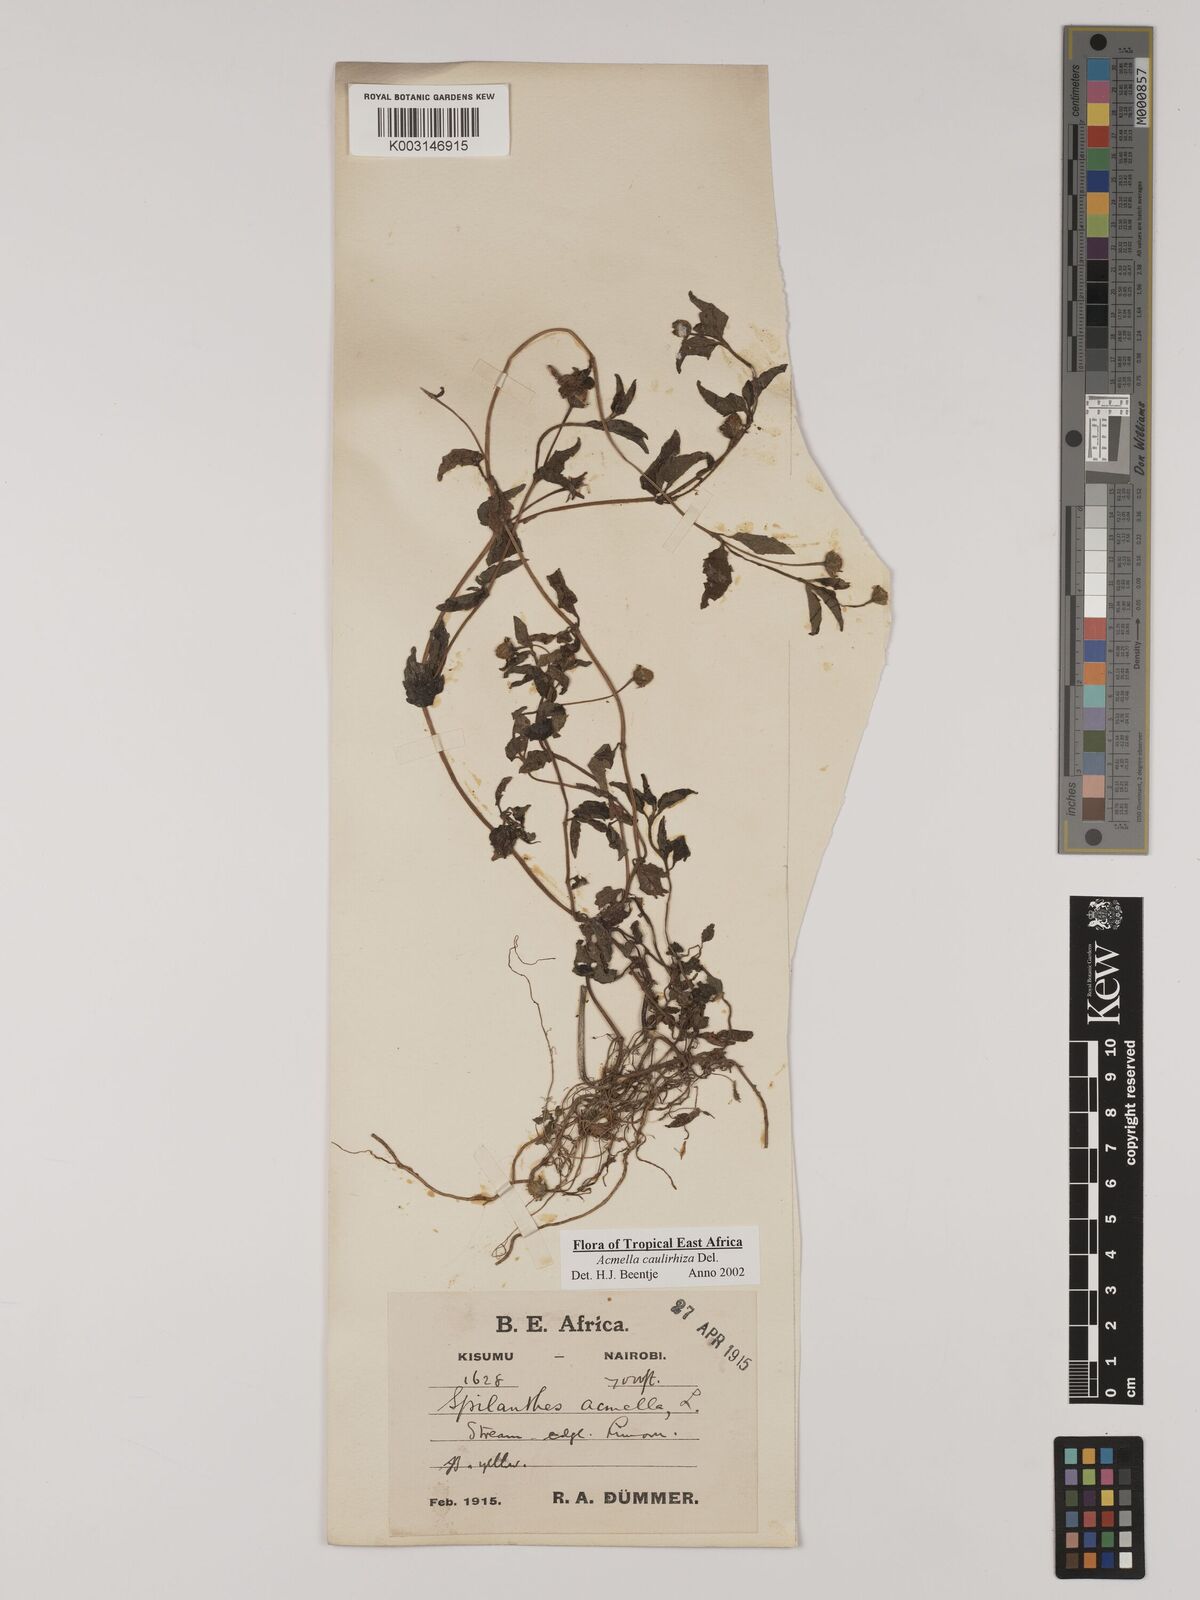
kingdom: Plantae
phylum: Tracheophyta
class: Magnoliopsida
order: Asterales
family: Asteraceae
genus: Acmella
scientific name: Acmella caulirhiza
